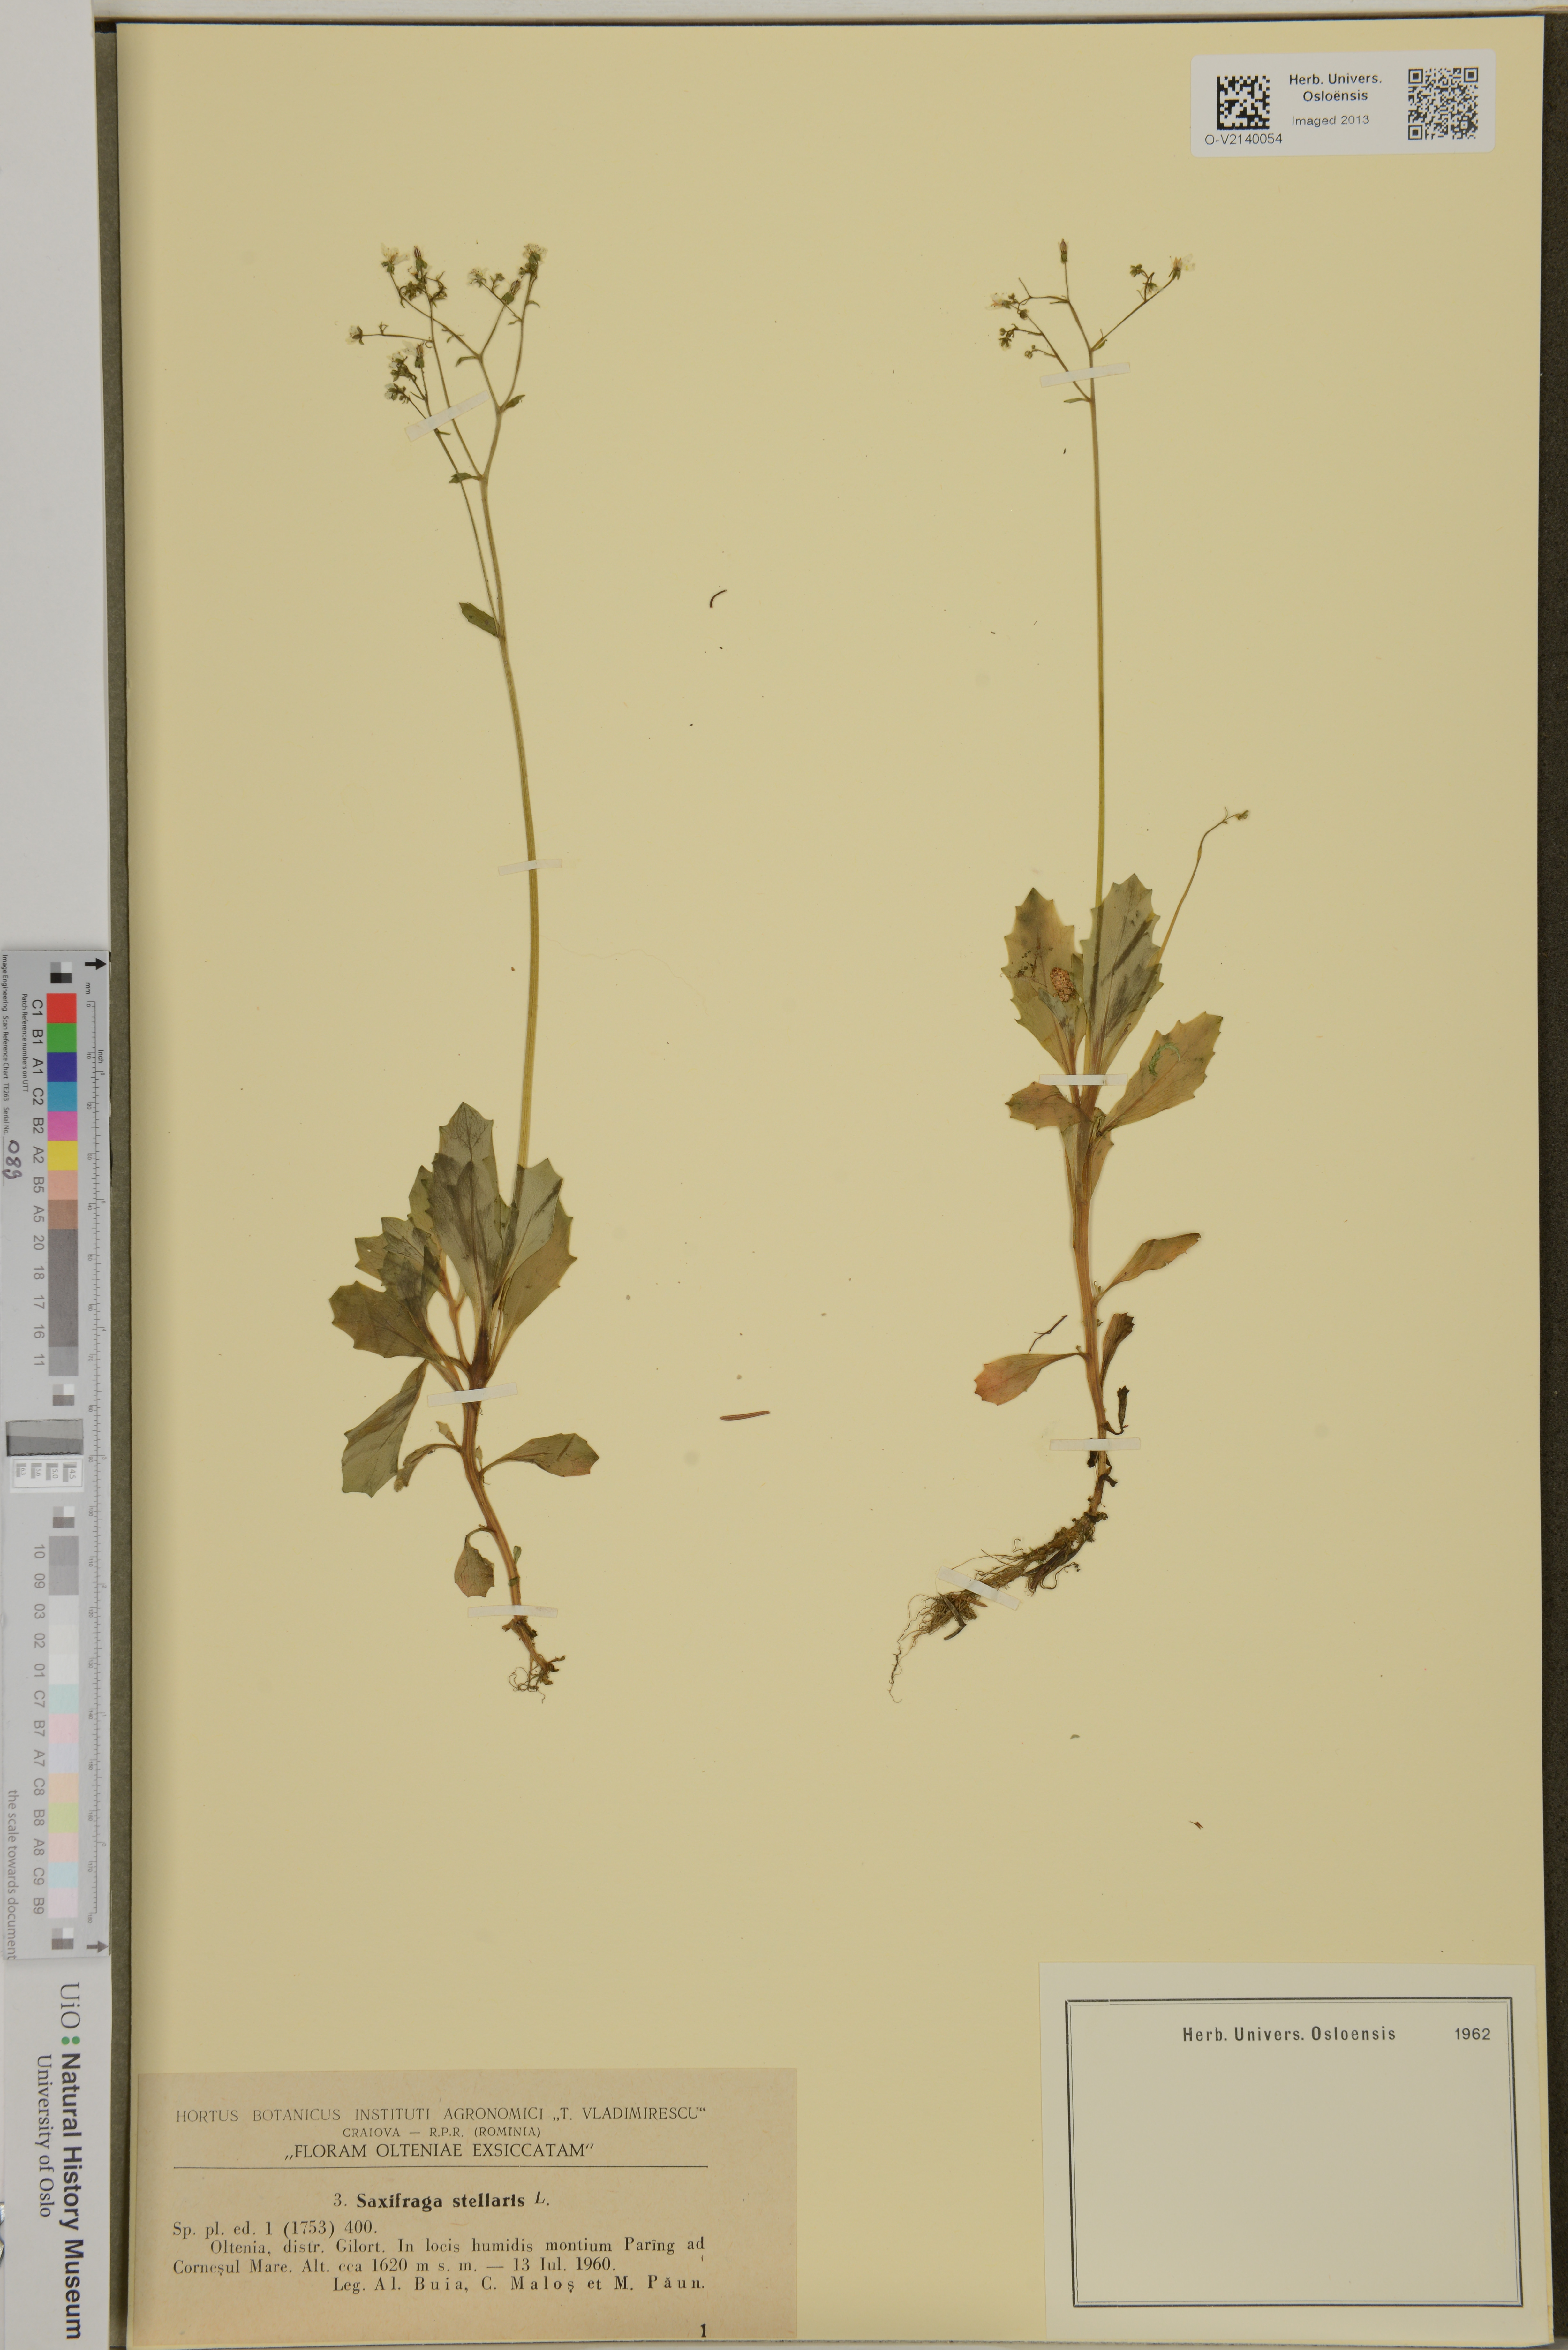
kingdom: Plantae
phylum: Tracheophyta
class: Magnoliopsida
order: Saxifragales
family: Saxifragaceae
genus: Micranthes
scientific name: Micranthes stellaris
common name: Starry saxifrage
